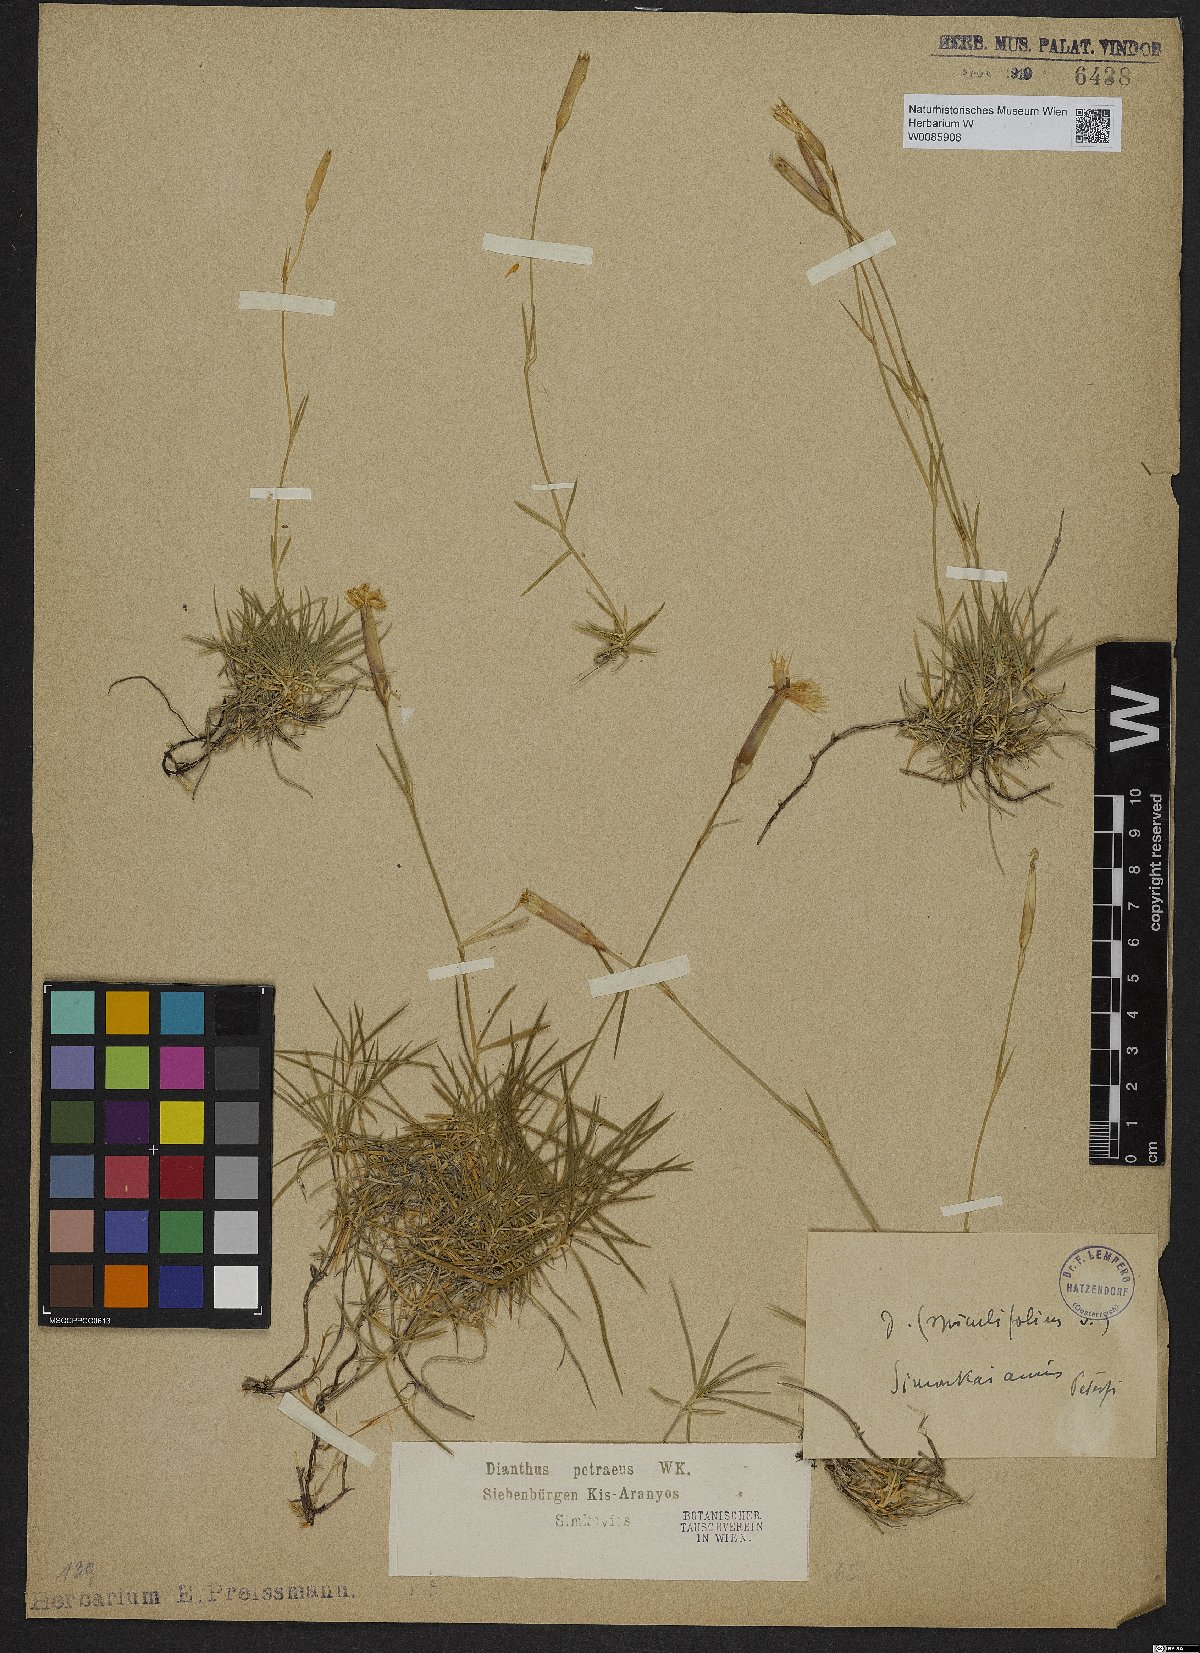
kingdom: Plantae
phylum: Tracheophyta
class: Magnoliopsida
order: Caryophyllales
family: Caryophyllaceae
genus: Dianthus
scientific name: Dianthus spiculifolius
